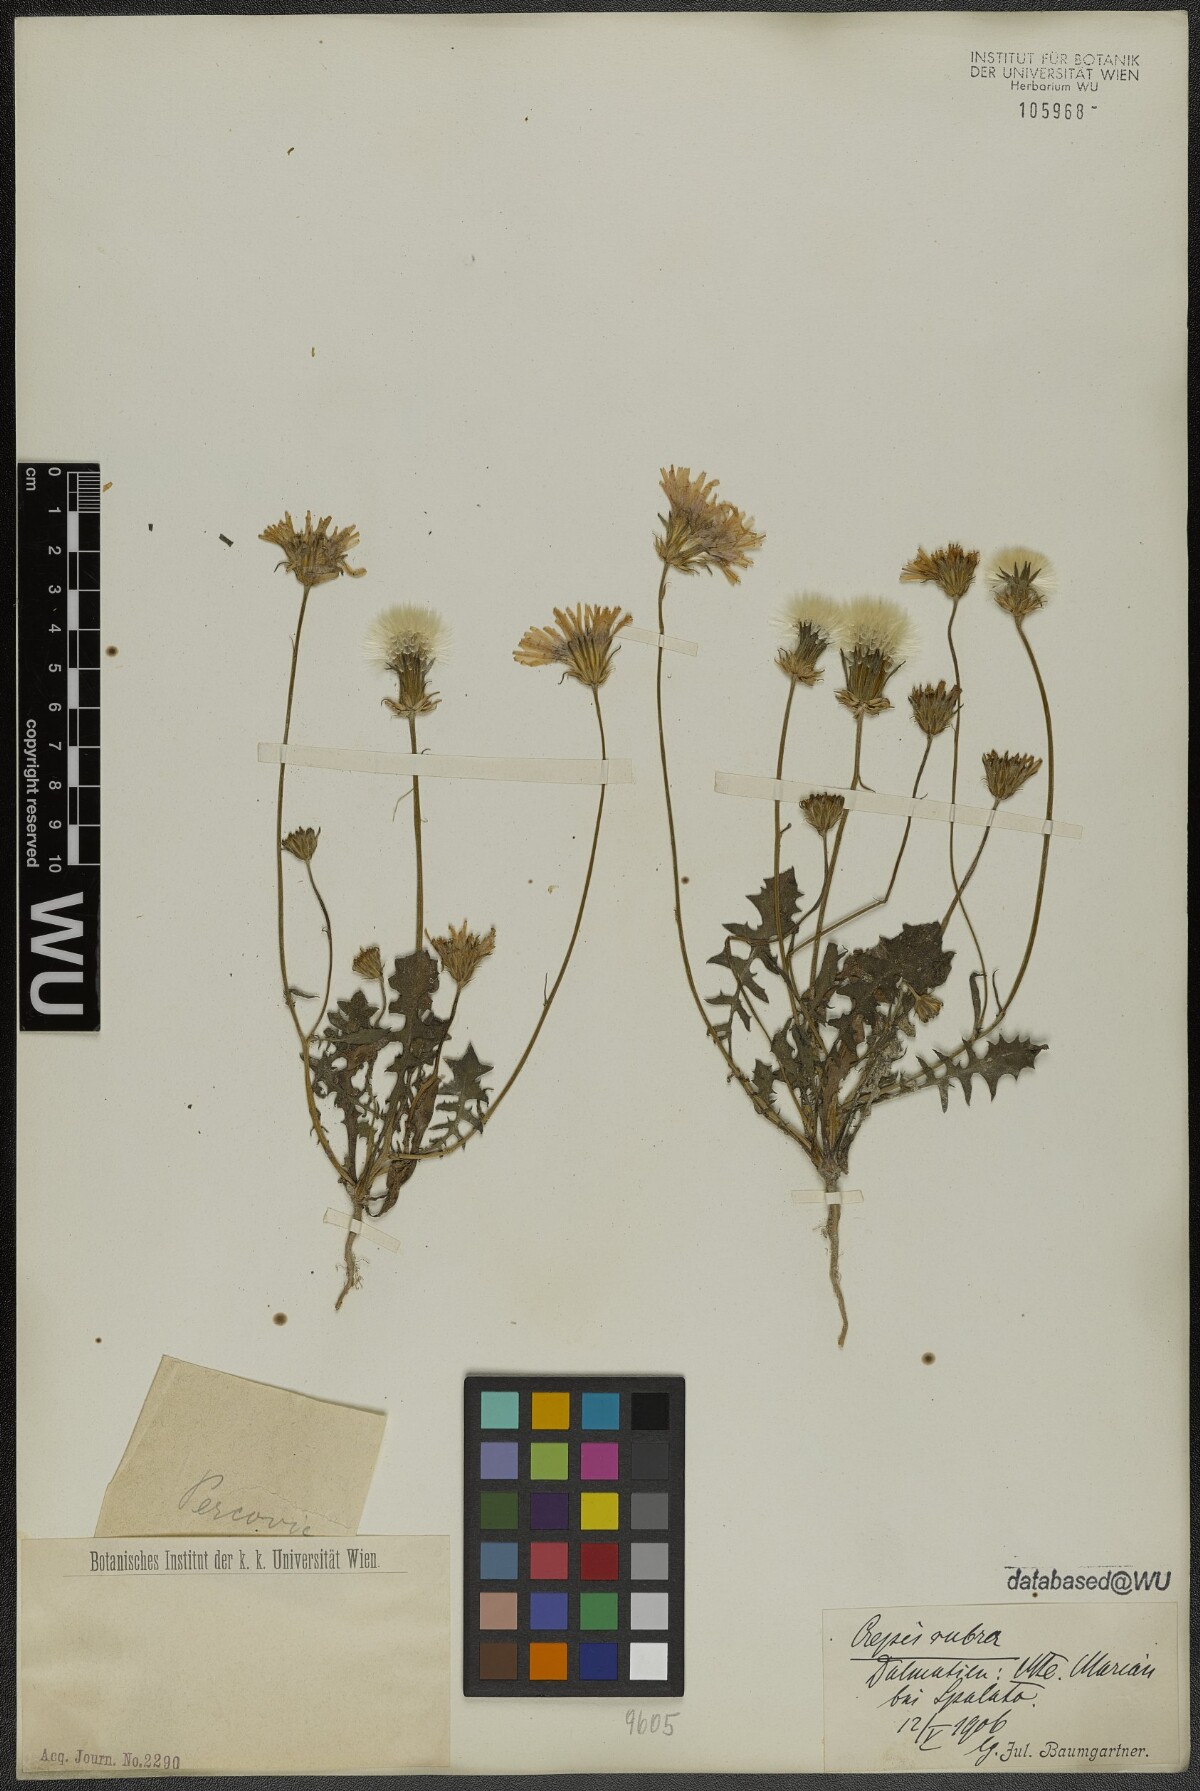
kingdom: Plantae
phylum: Tracheophyta
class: Magnoliopsida
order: Asterales
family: Asteraceae
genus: Crepis
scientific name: Crepis rubra
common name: Pink hawk's-beard
